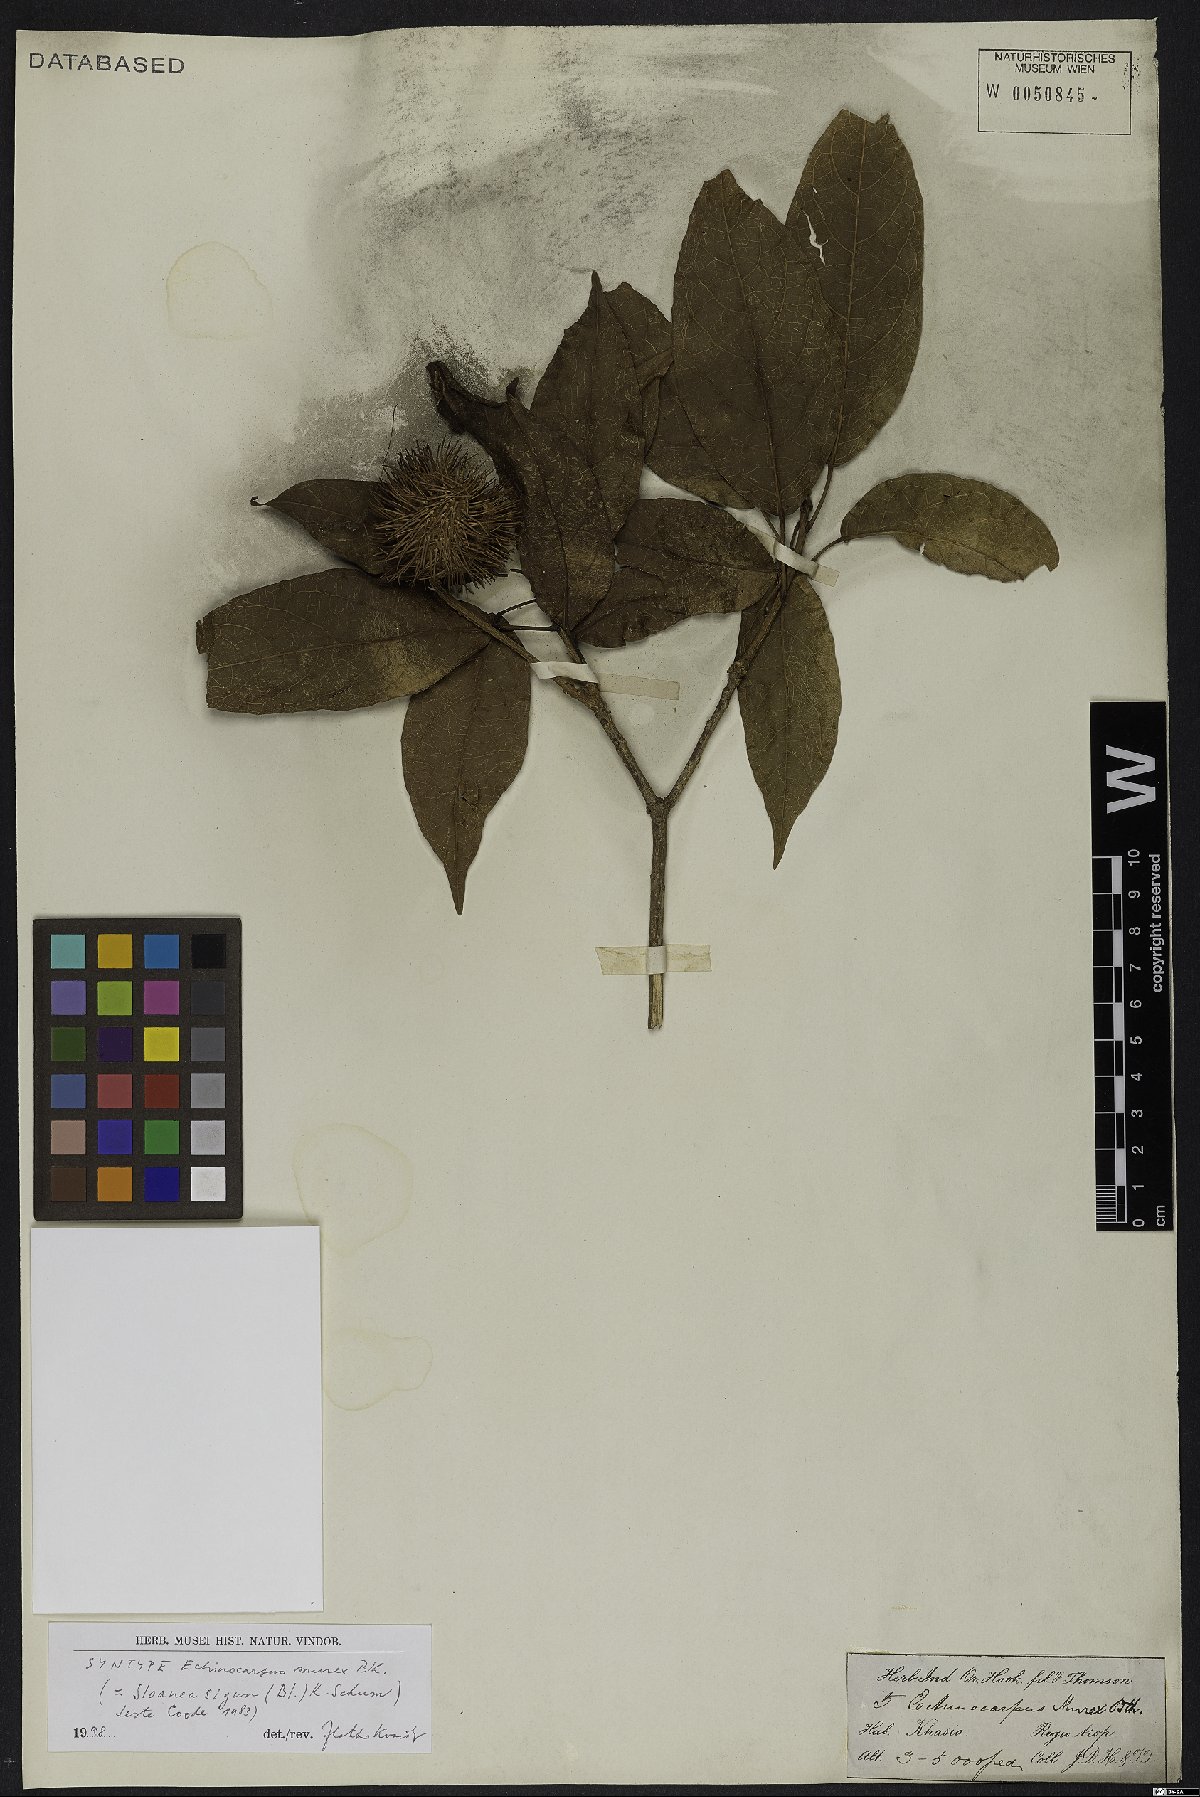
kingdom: Plantae
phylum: Tracheophyta
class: Magnoliopsida
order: Oxalidales
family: Elaeocarpaceae
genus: Sloanea
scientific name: Sloanea sigun
